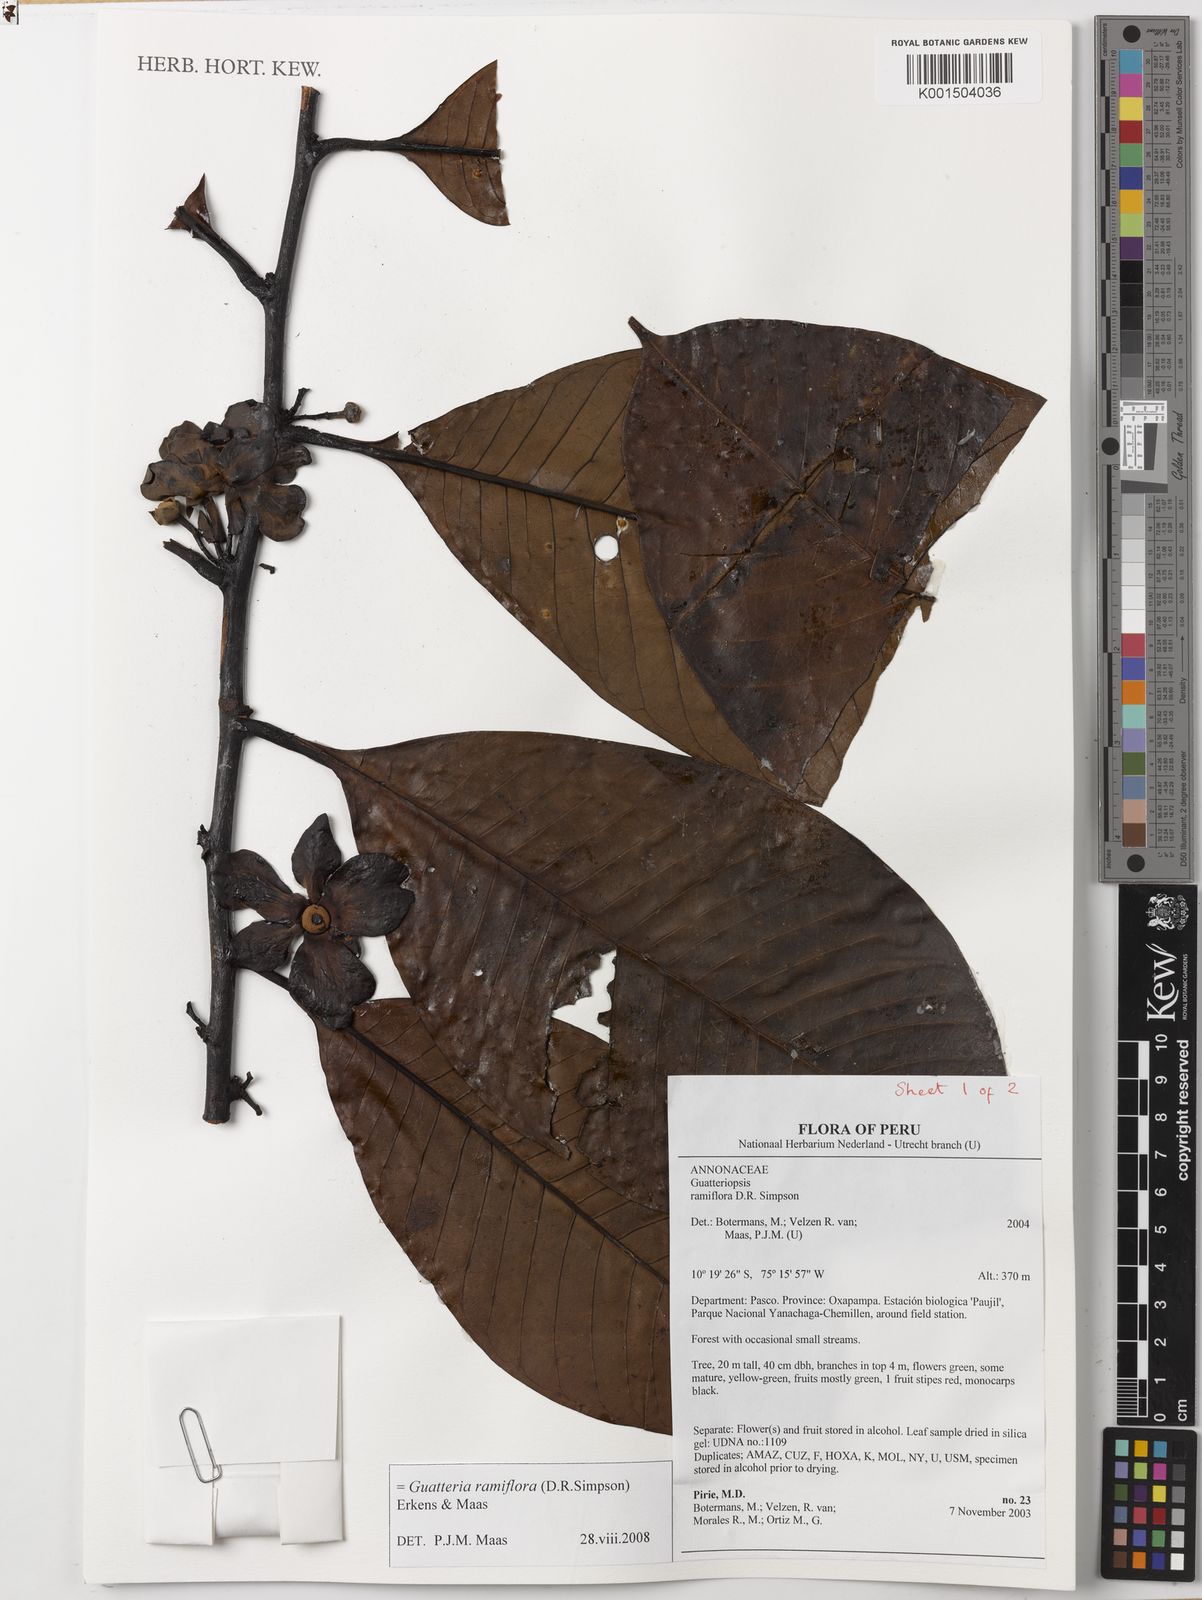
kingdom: Plantae
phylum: Tracheophyta
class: Magnoliopsida
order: Magnoliales
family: Annonaceae
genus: Guatteria
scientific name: Guatteria ramiflora
